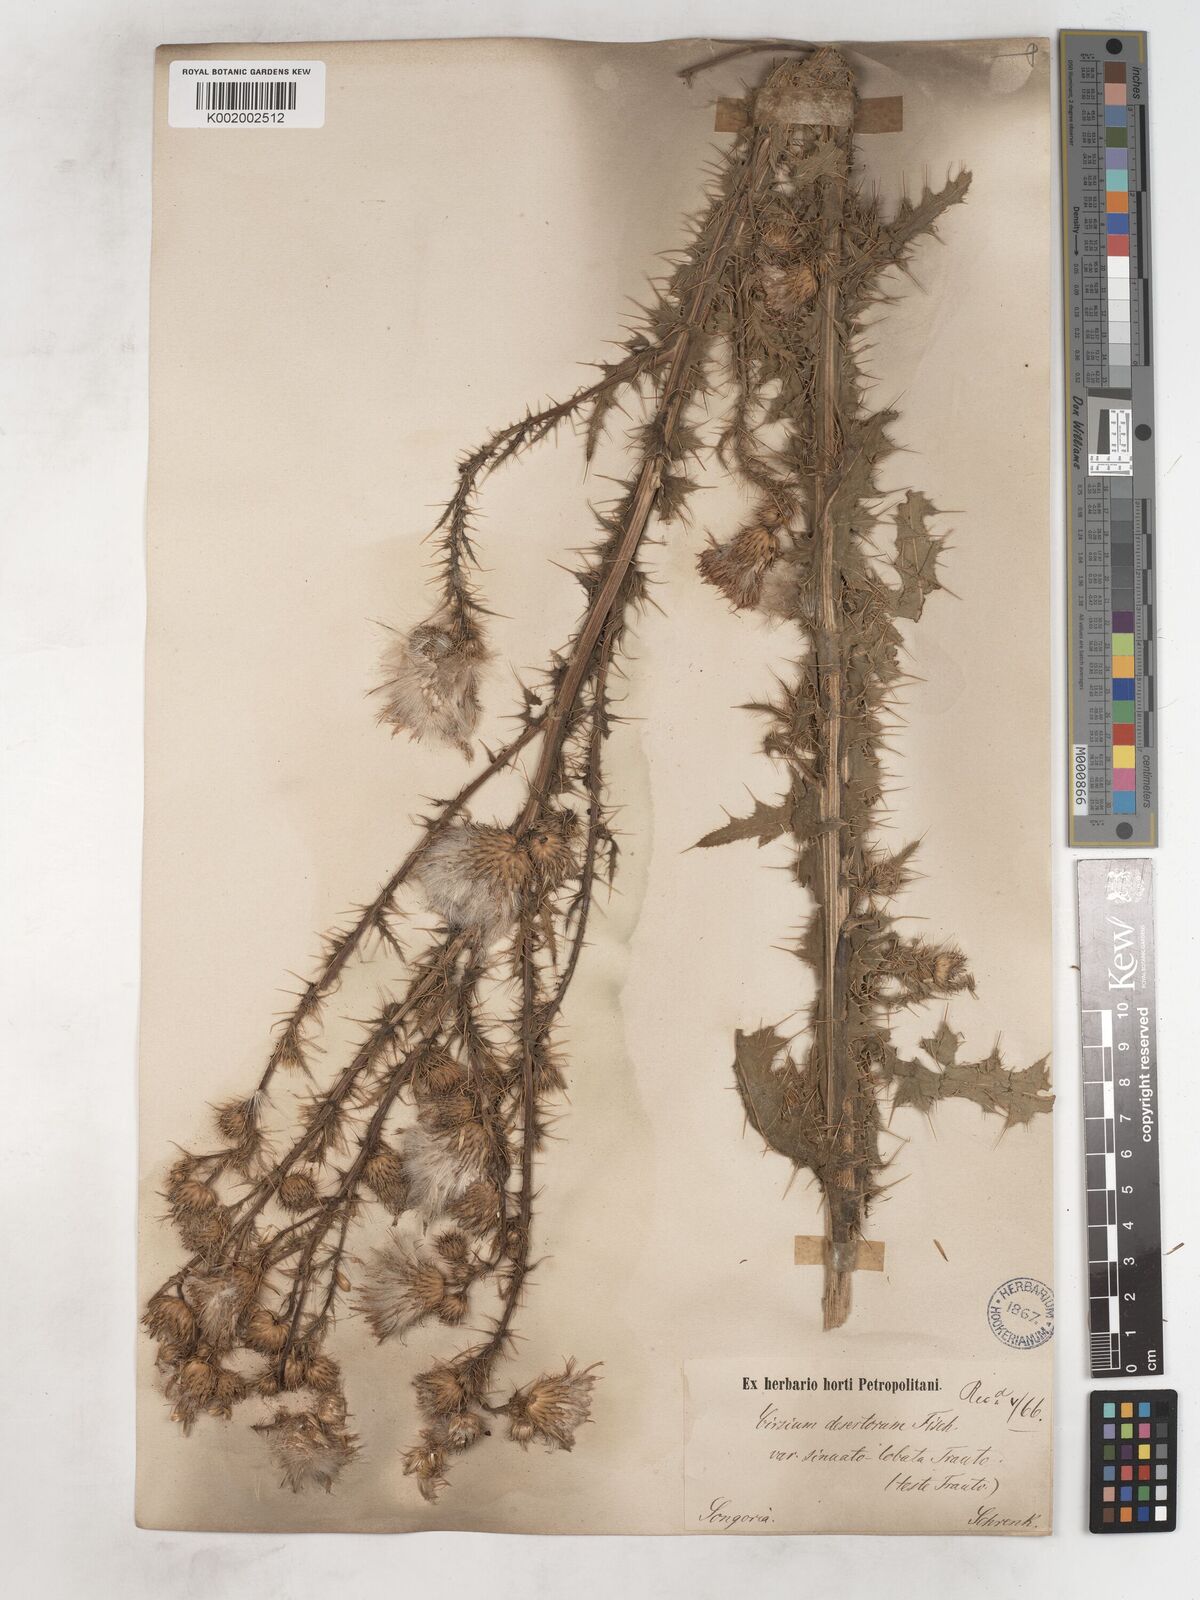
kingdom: Plantae
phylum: Tracheophyta
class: Magnoliopsida
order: Asterales
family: Asteraceae
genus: Cirsium
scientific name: Cirsium alatum
